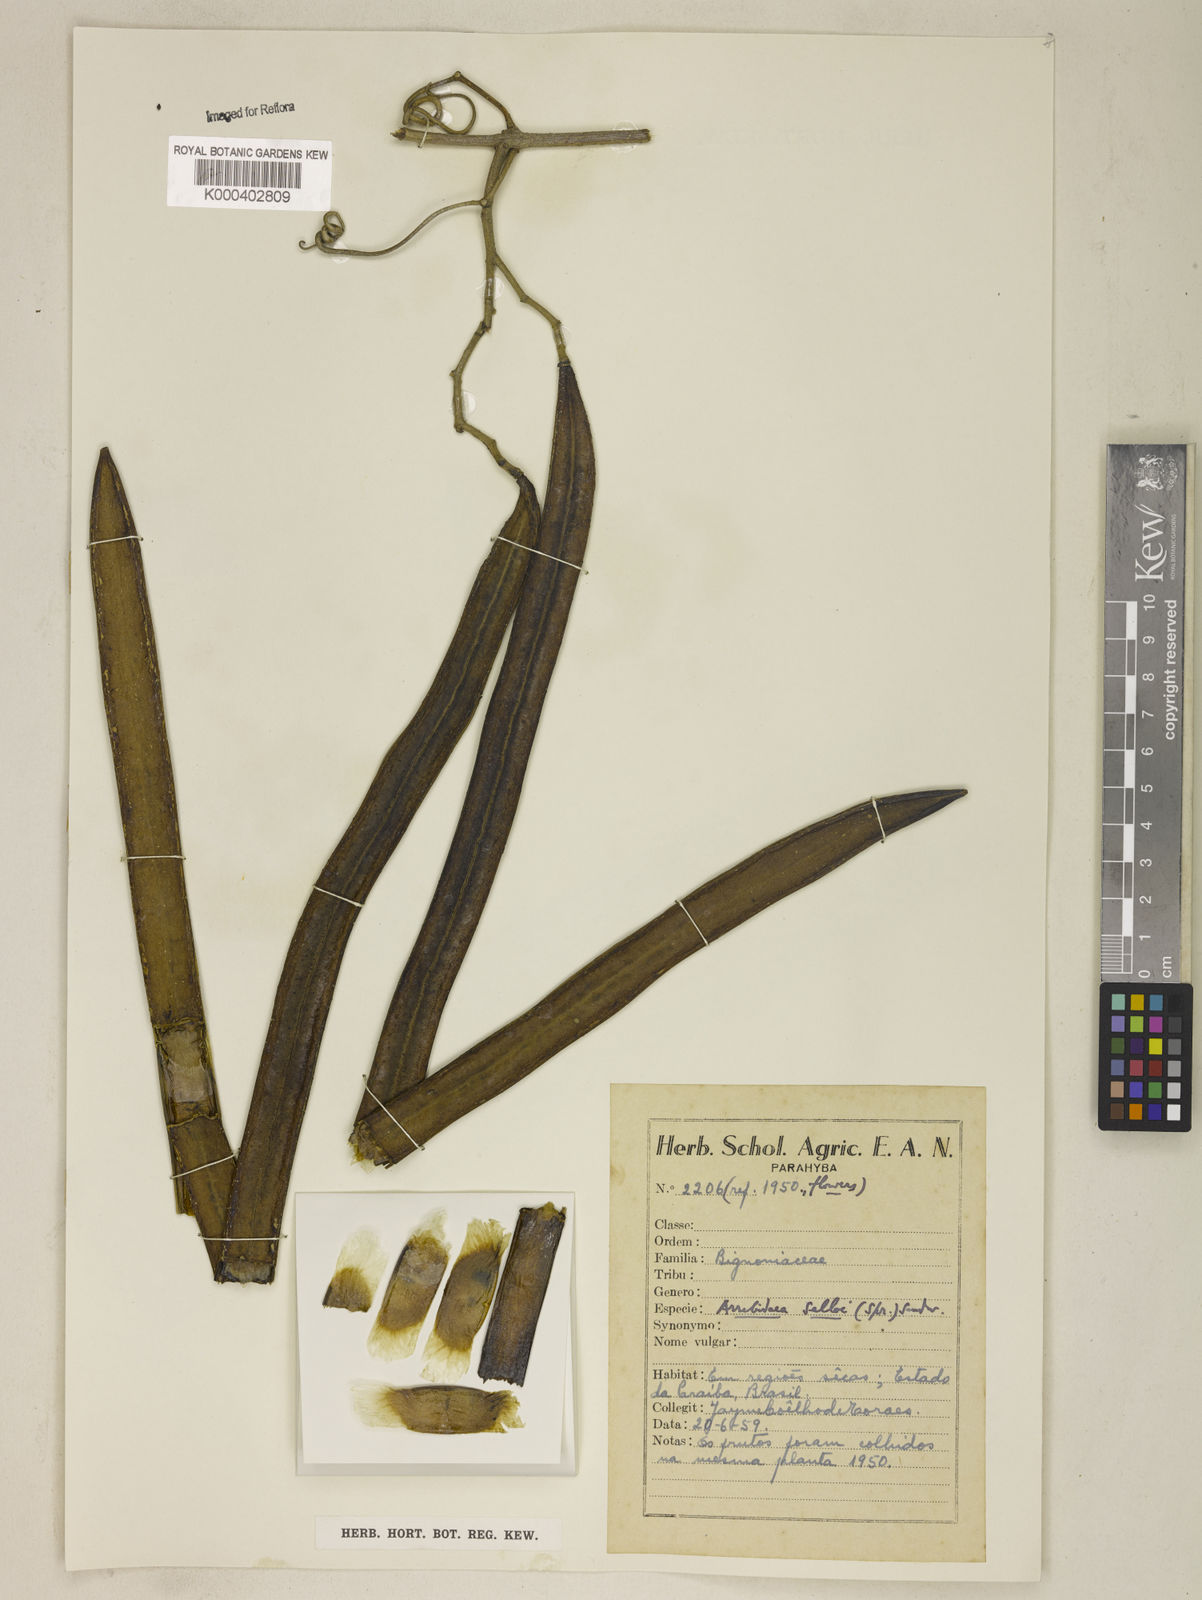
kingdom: Plantae
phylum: Tracheophyta
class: Magnoliopsida
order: Lamiales
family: Bignoniaceae
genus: Tanaecium
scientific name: Tanaecium selloi
